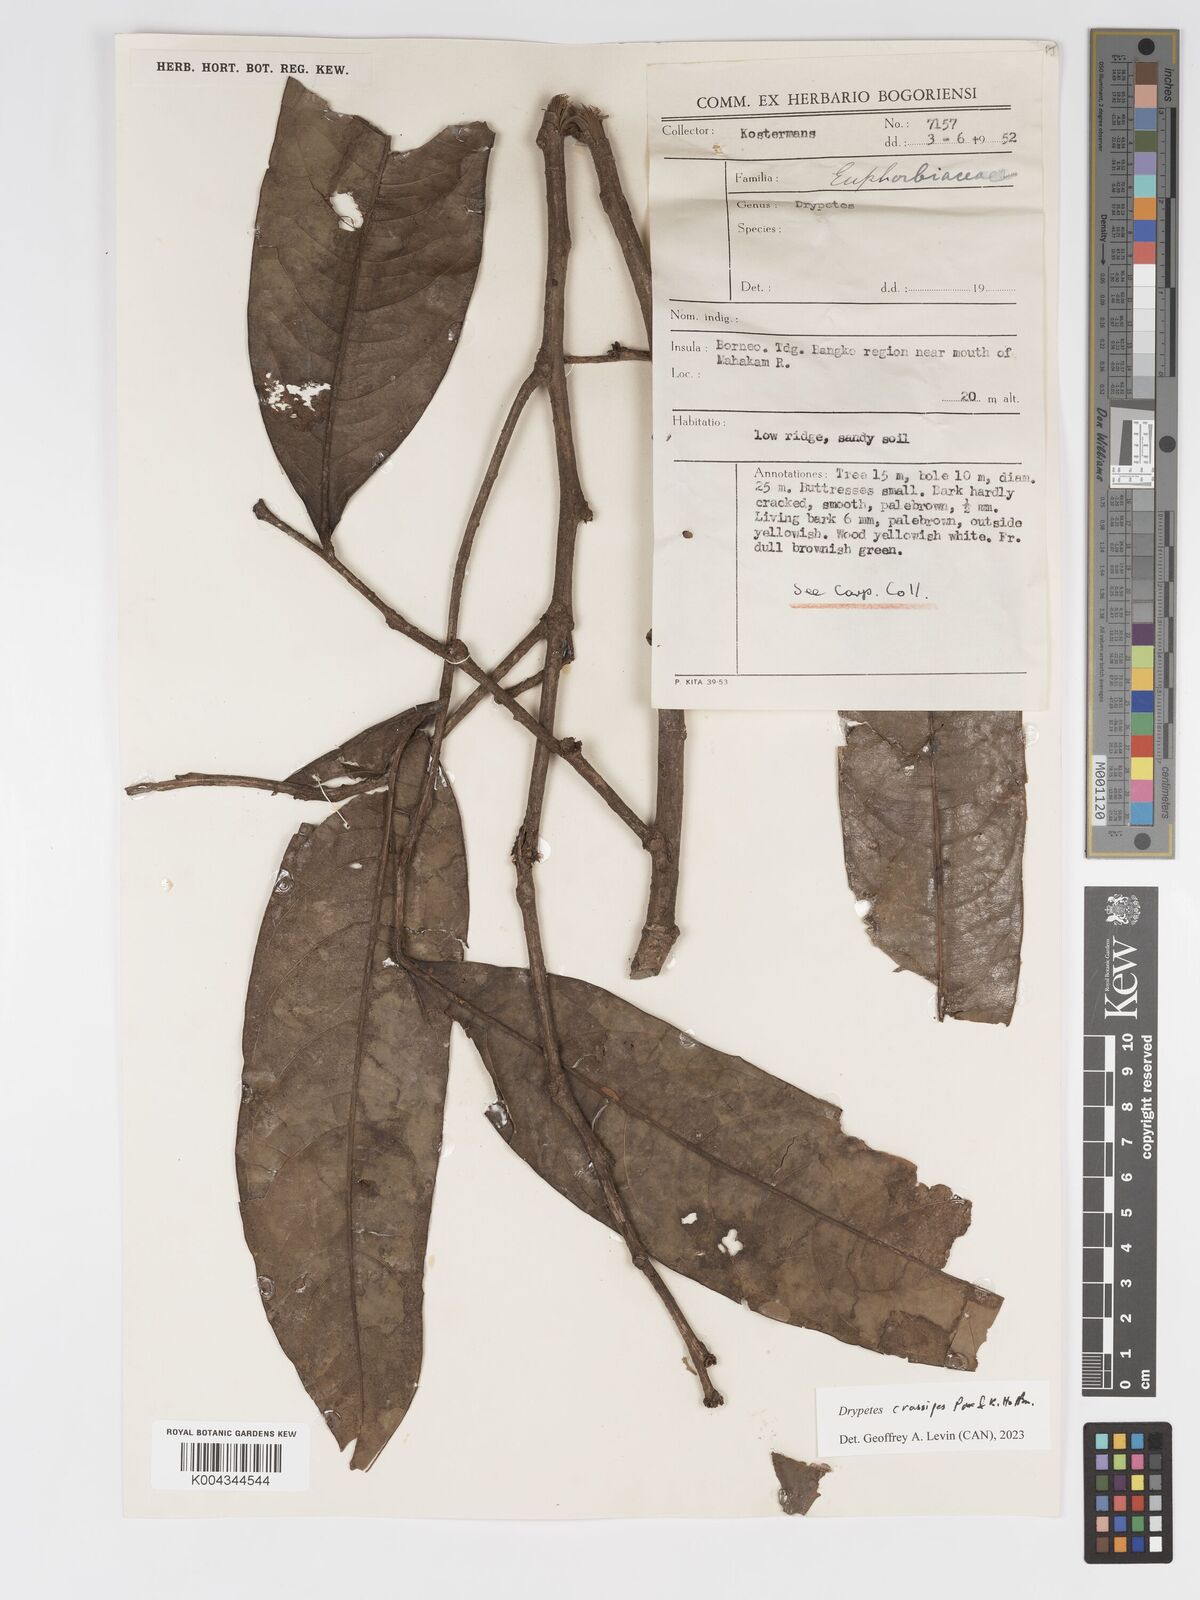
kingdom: Plantae
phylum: Tracheophyta
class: Magnoliopsida
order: Malpighiales
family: Putranjivaceae
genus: Drypetes
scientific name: Drypetes crassipes
